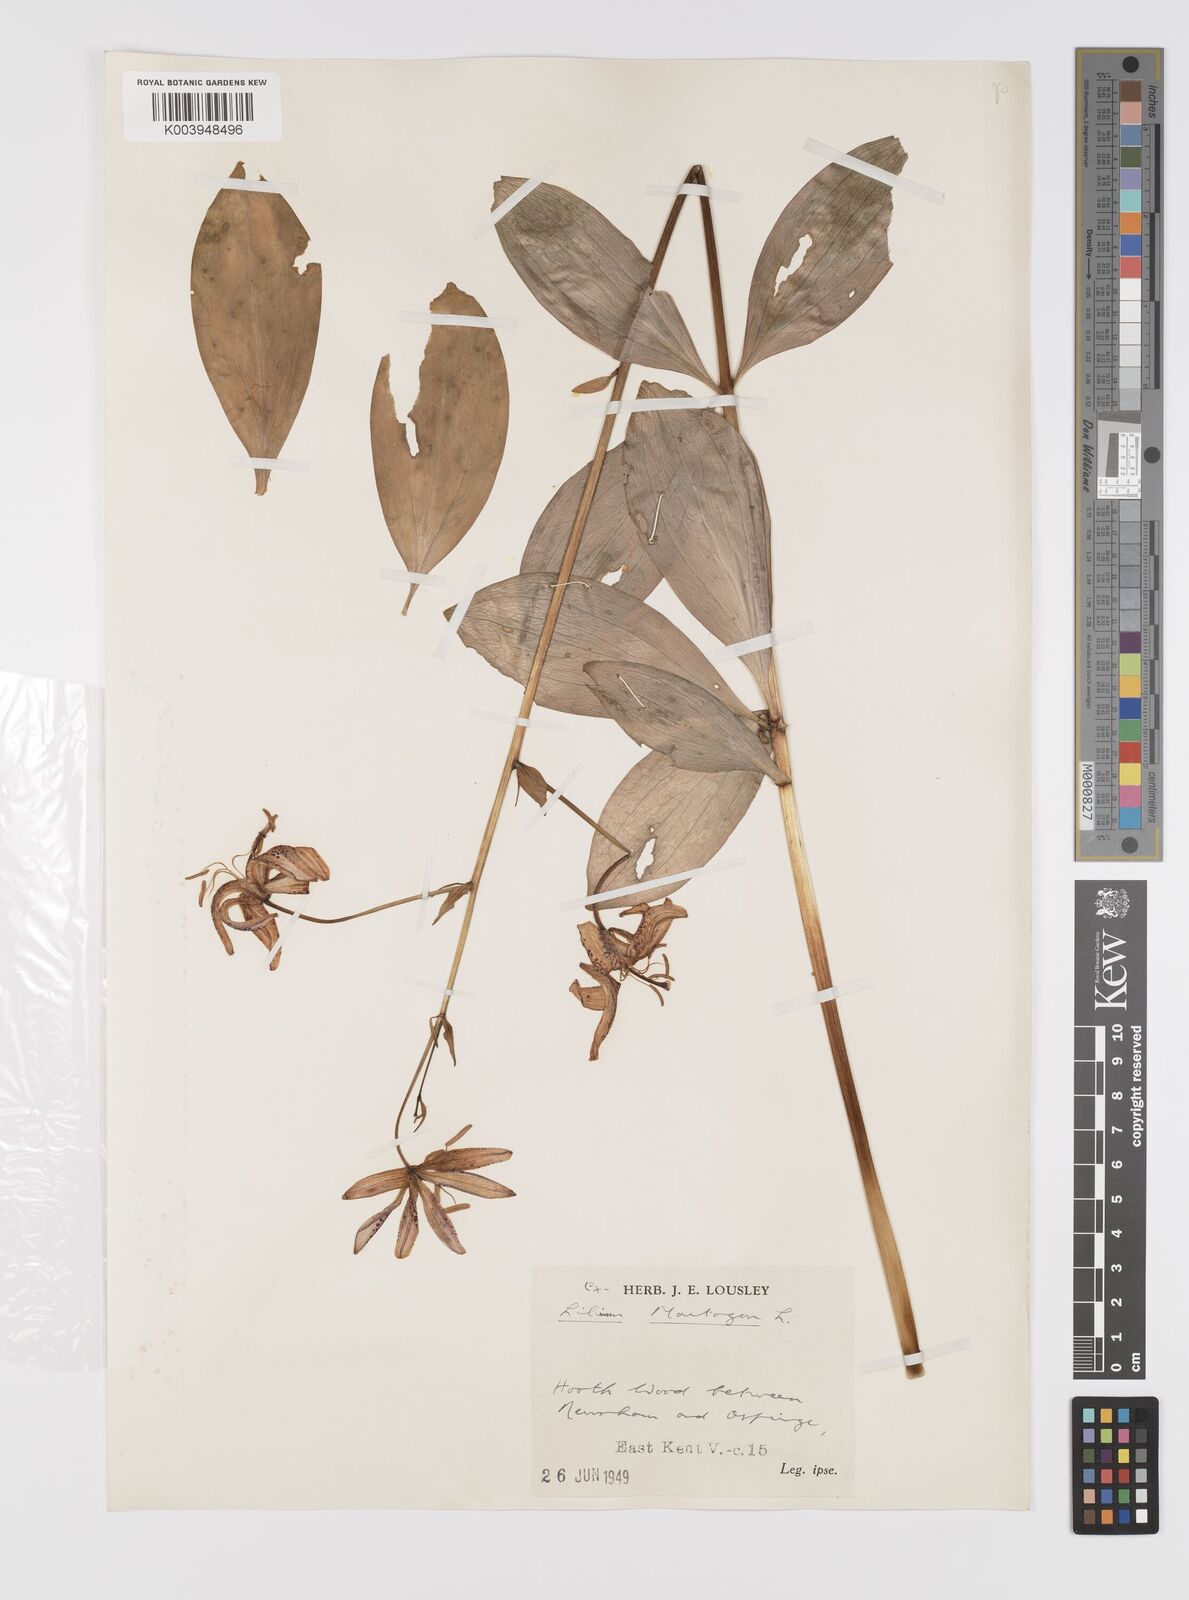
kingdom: Plantae
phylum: Tracheophyta
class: Liliopsida
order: Liliales
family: Liliaceae
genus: Lilium
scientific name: Lilium martagon
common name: Martagon lily
